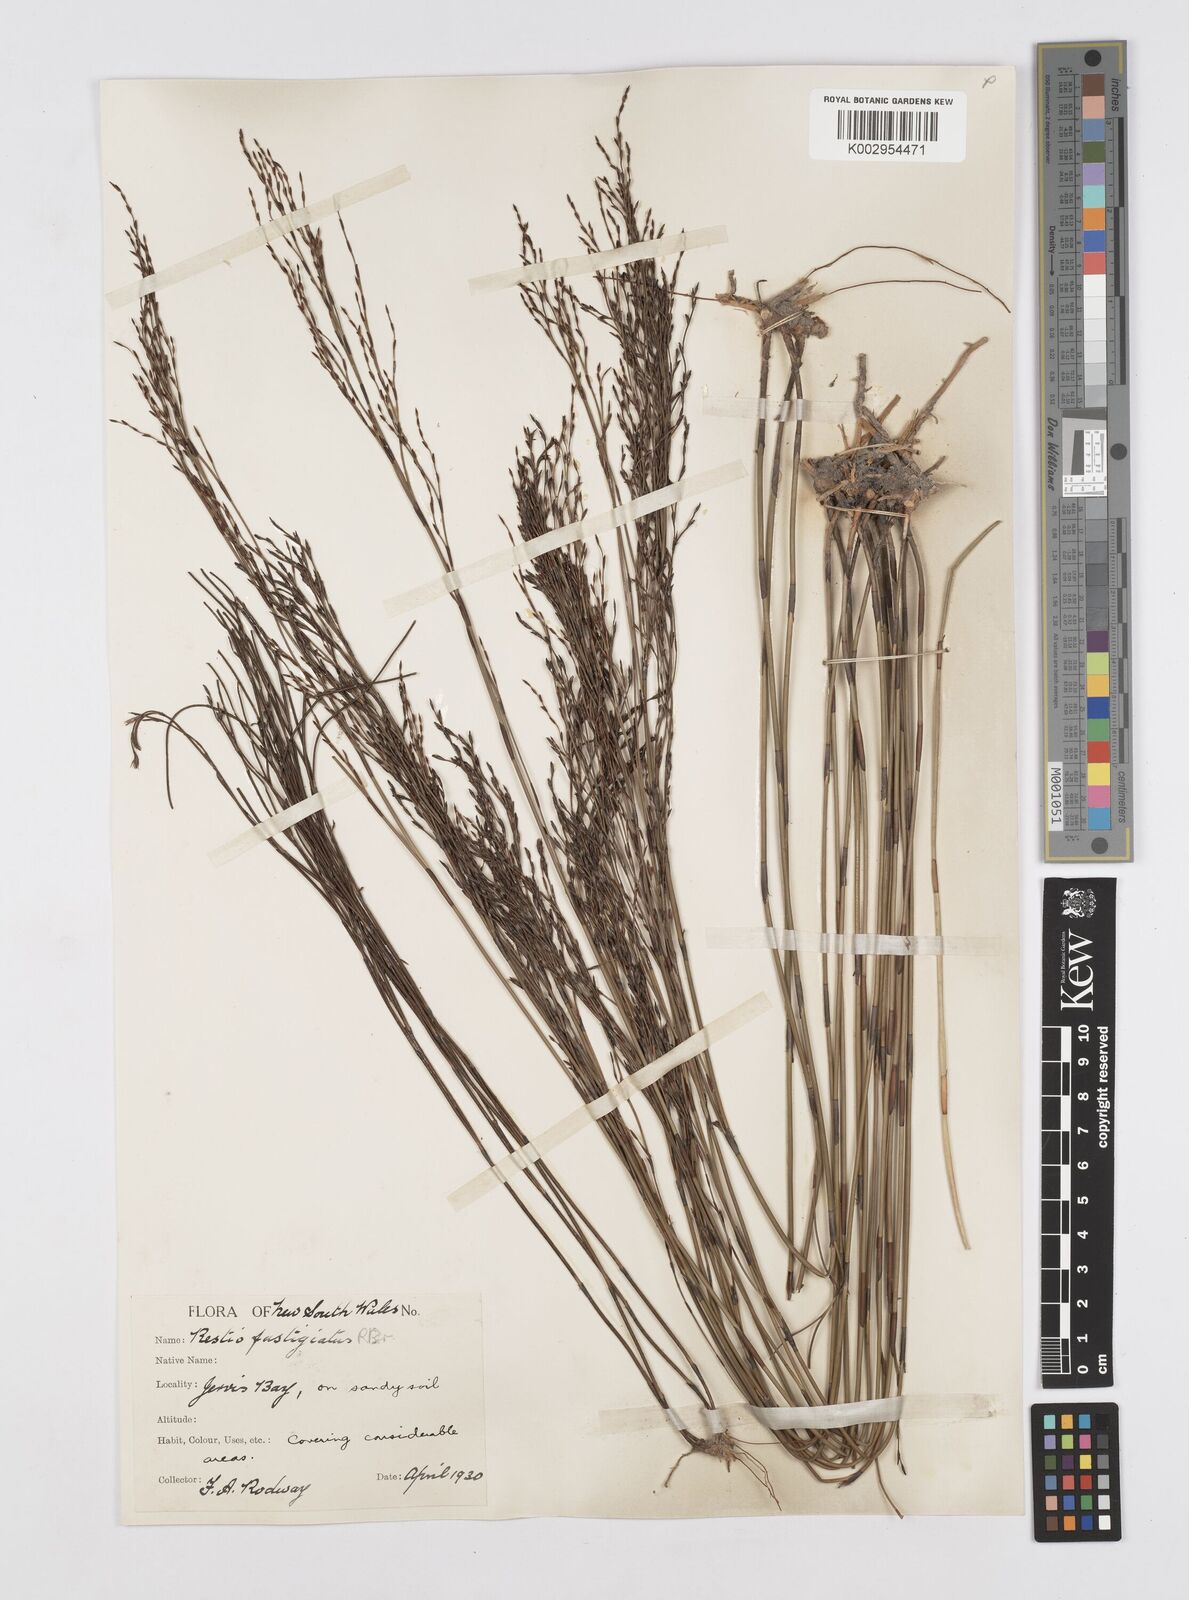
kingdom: Plantae
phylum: Tracheophyta
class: Liliopsida
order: Poales
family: Restionaceae
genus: Chordifex
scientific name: Chordifex fastigiatus
